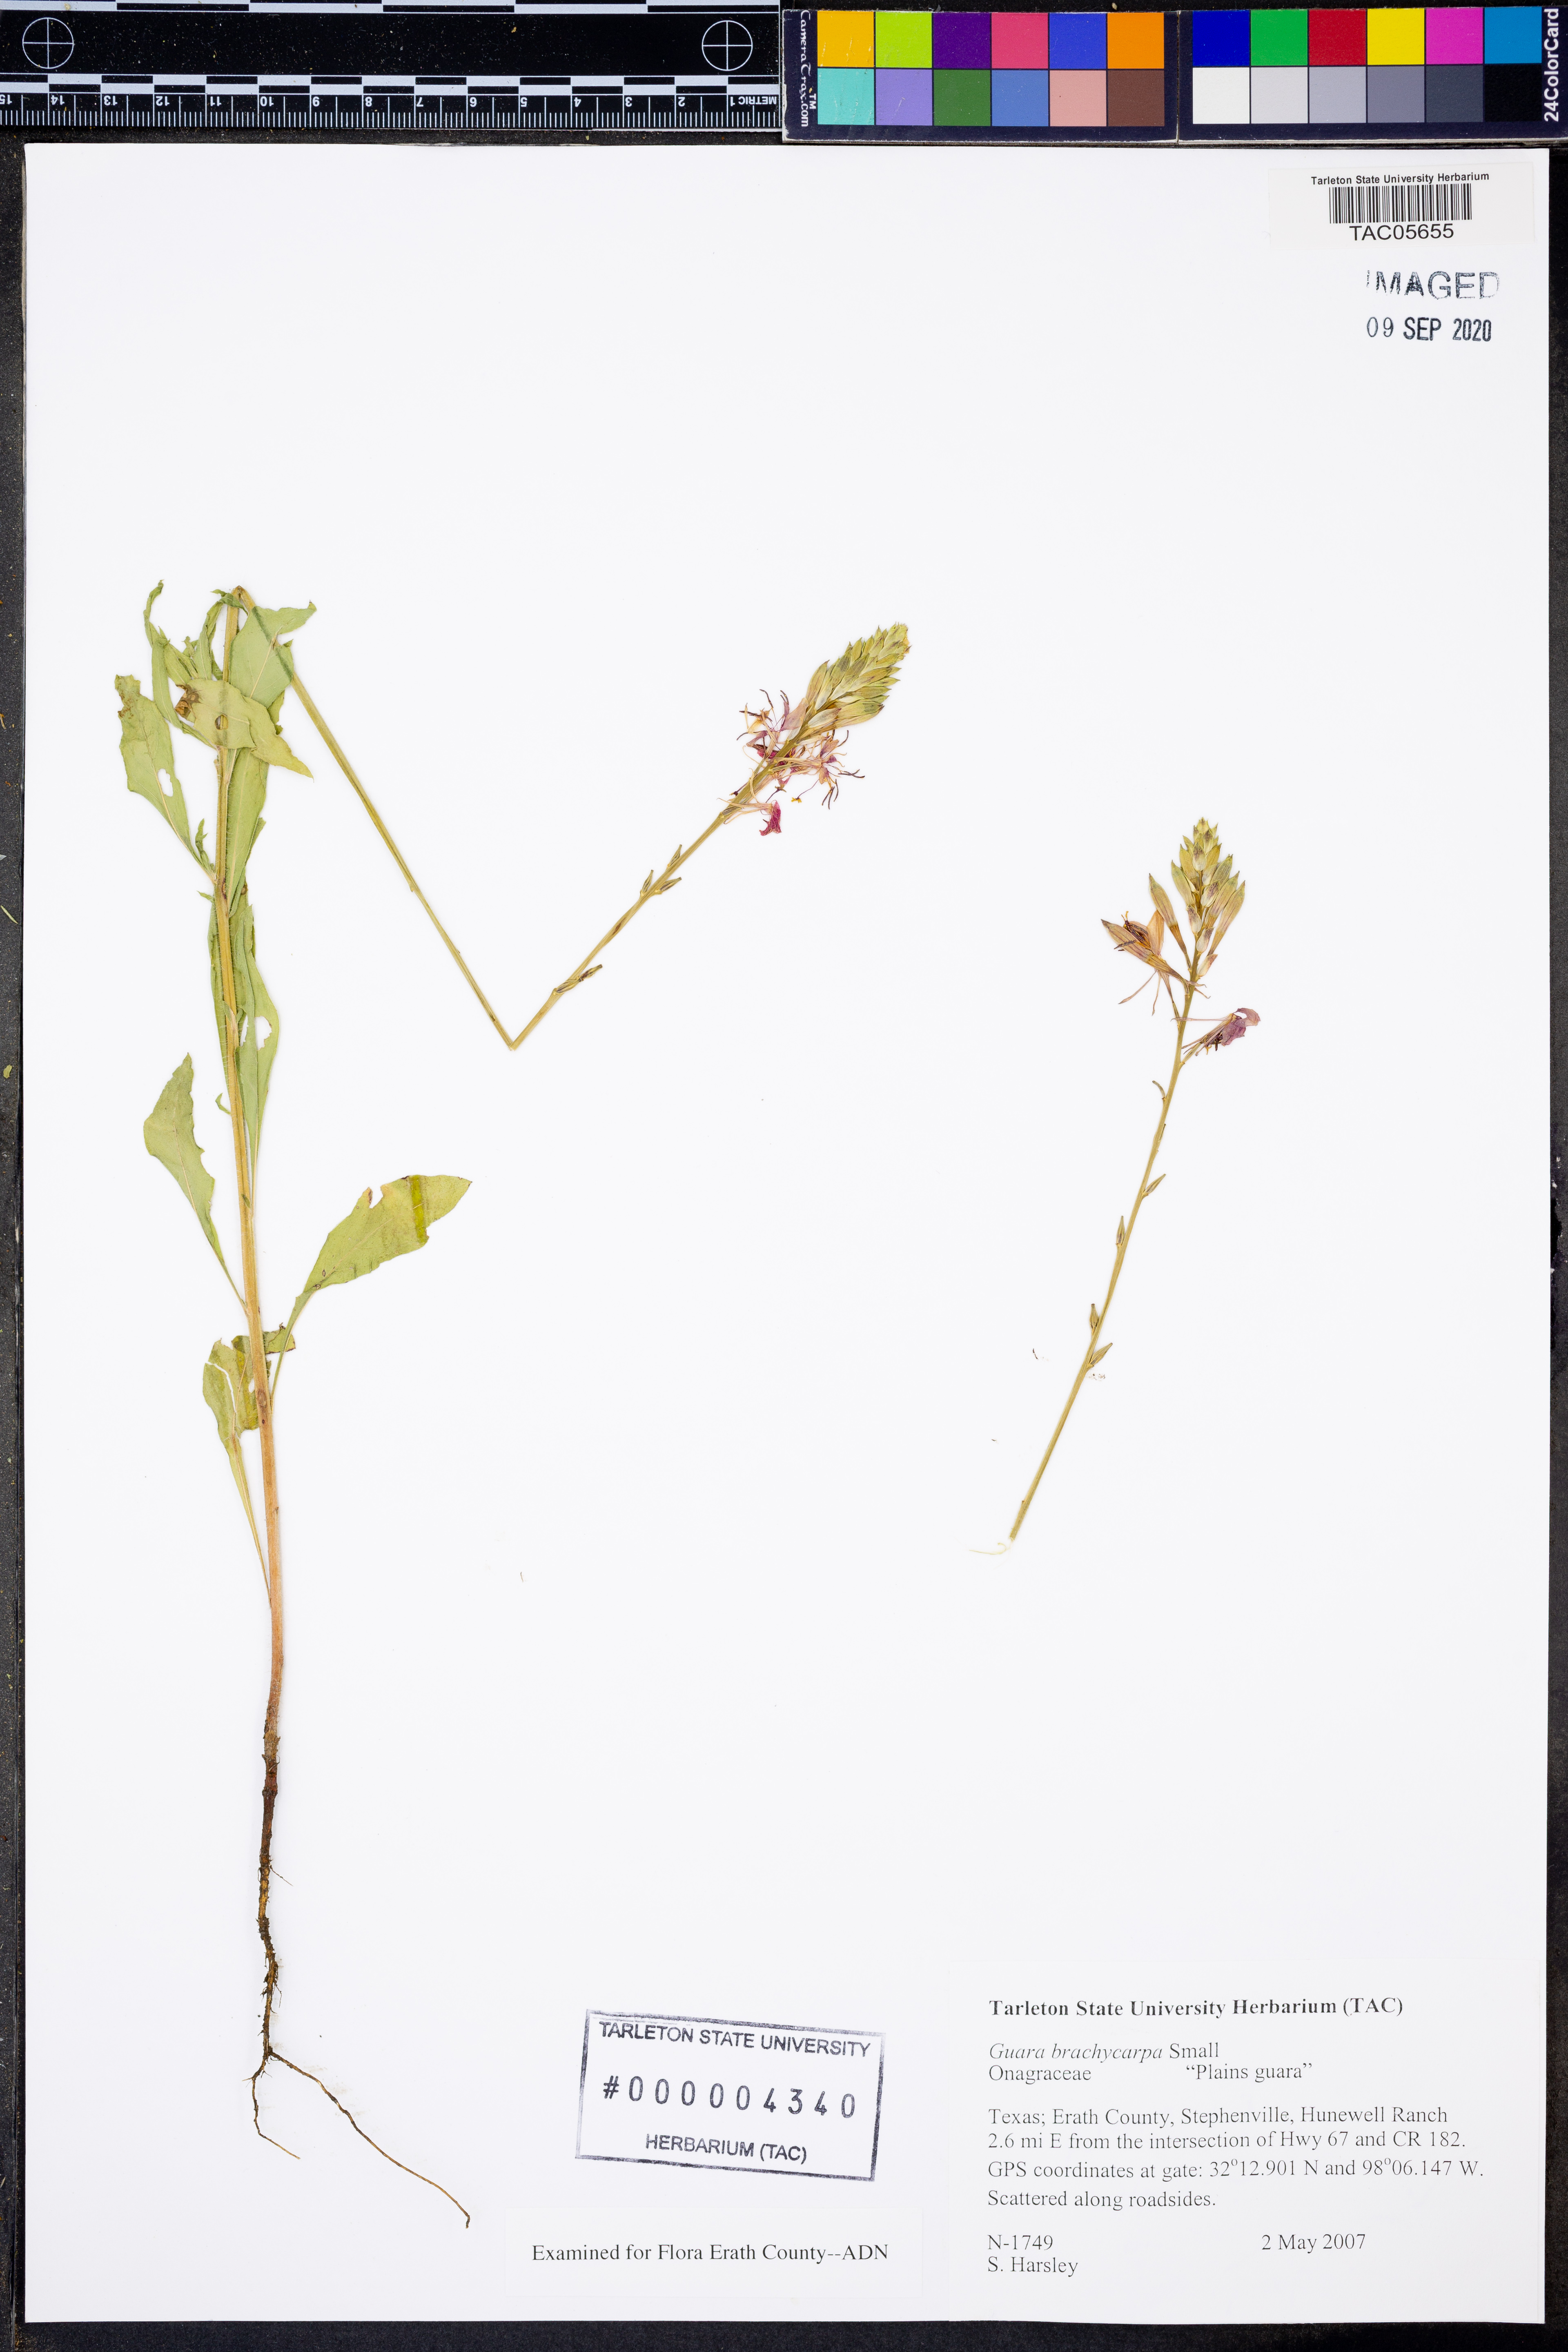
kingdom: Plantae
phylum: Tracheophyta
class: Magnoliopsida
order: Myrtales
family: Onagraceae
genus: Oenothera
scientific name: Oenothera patriciae
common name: Plains beeblossom
